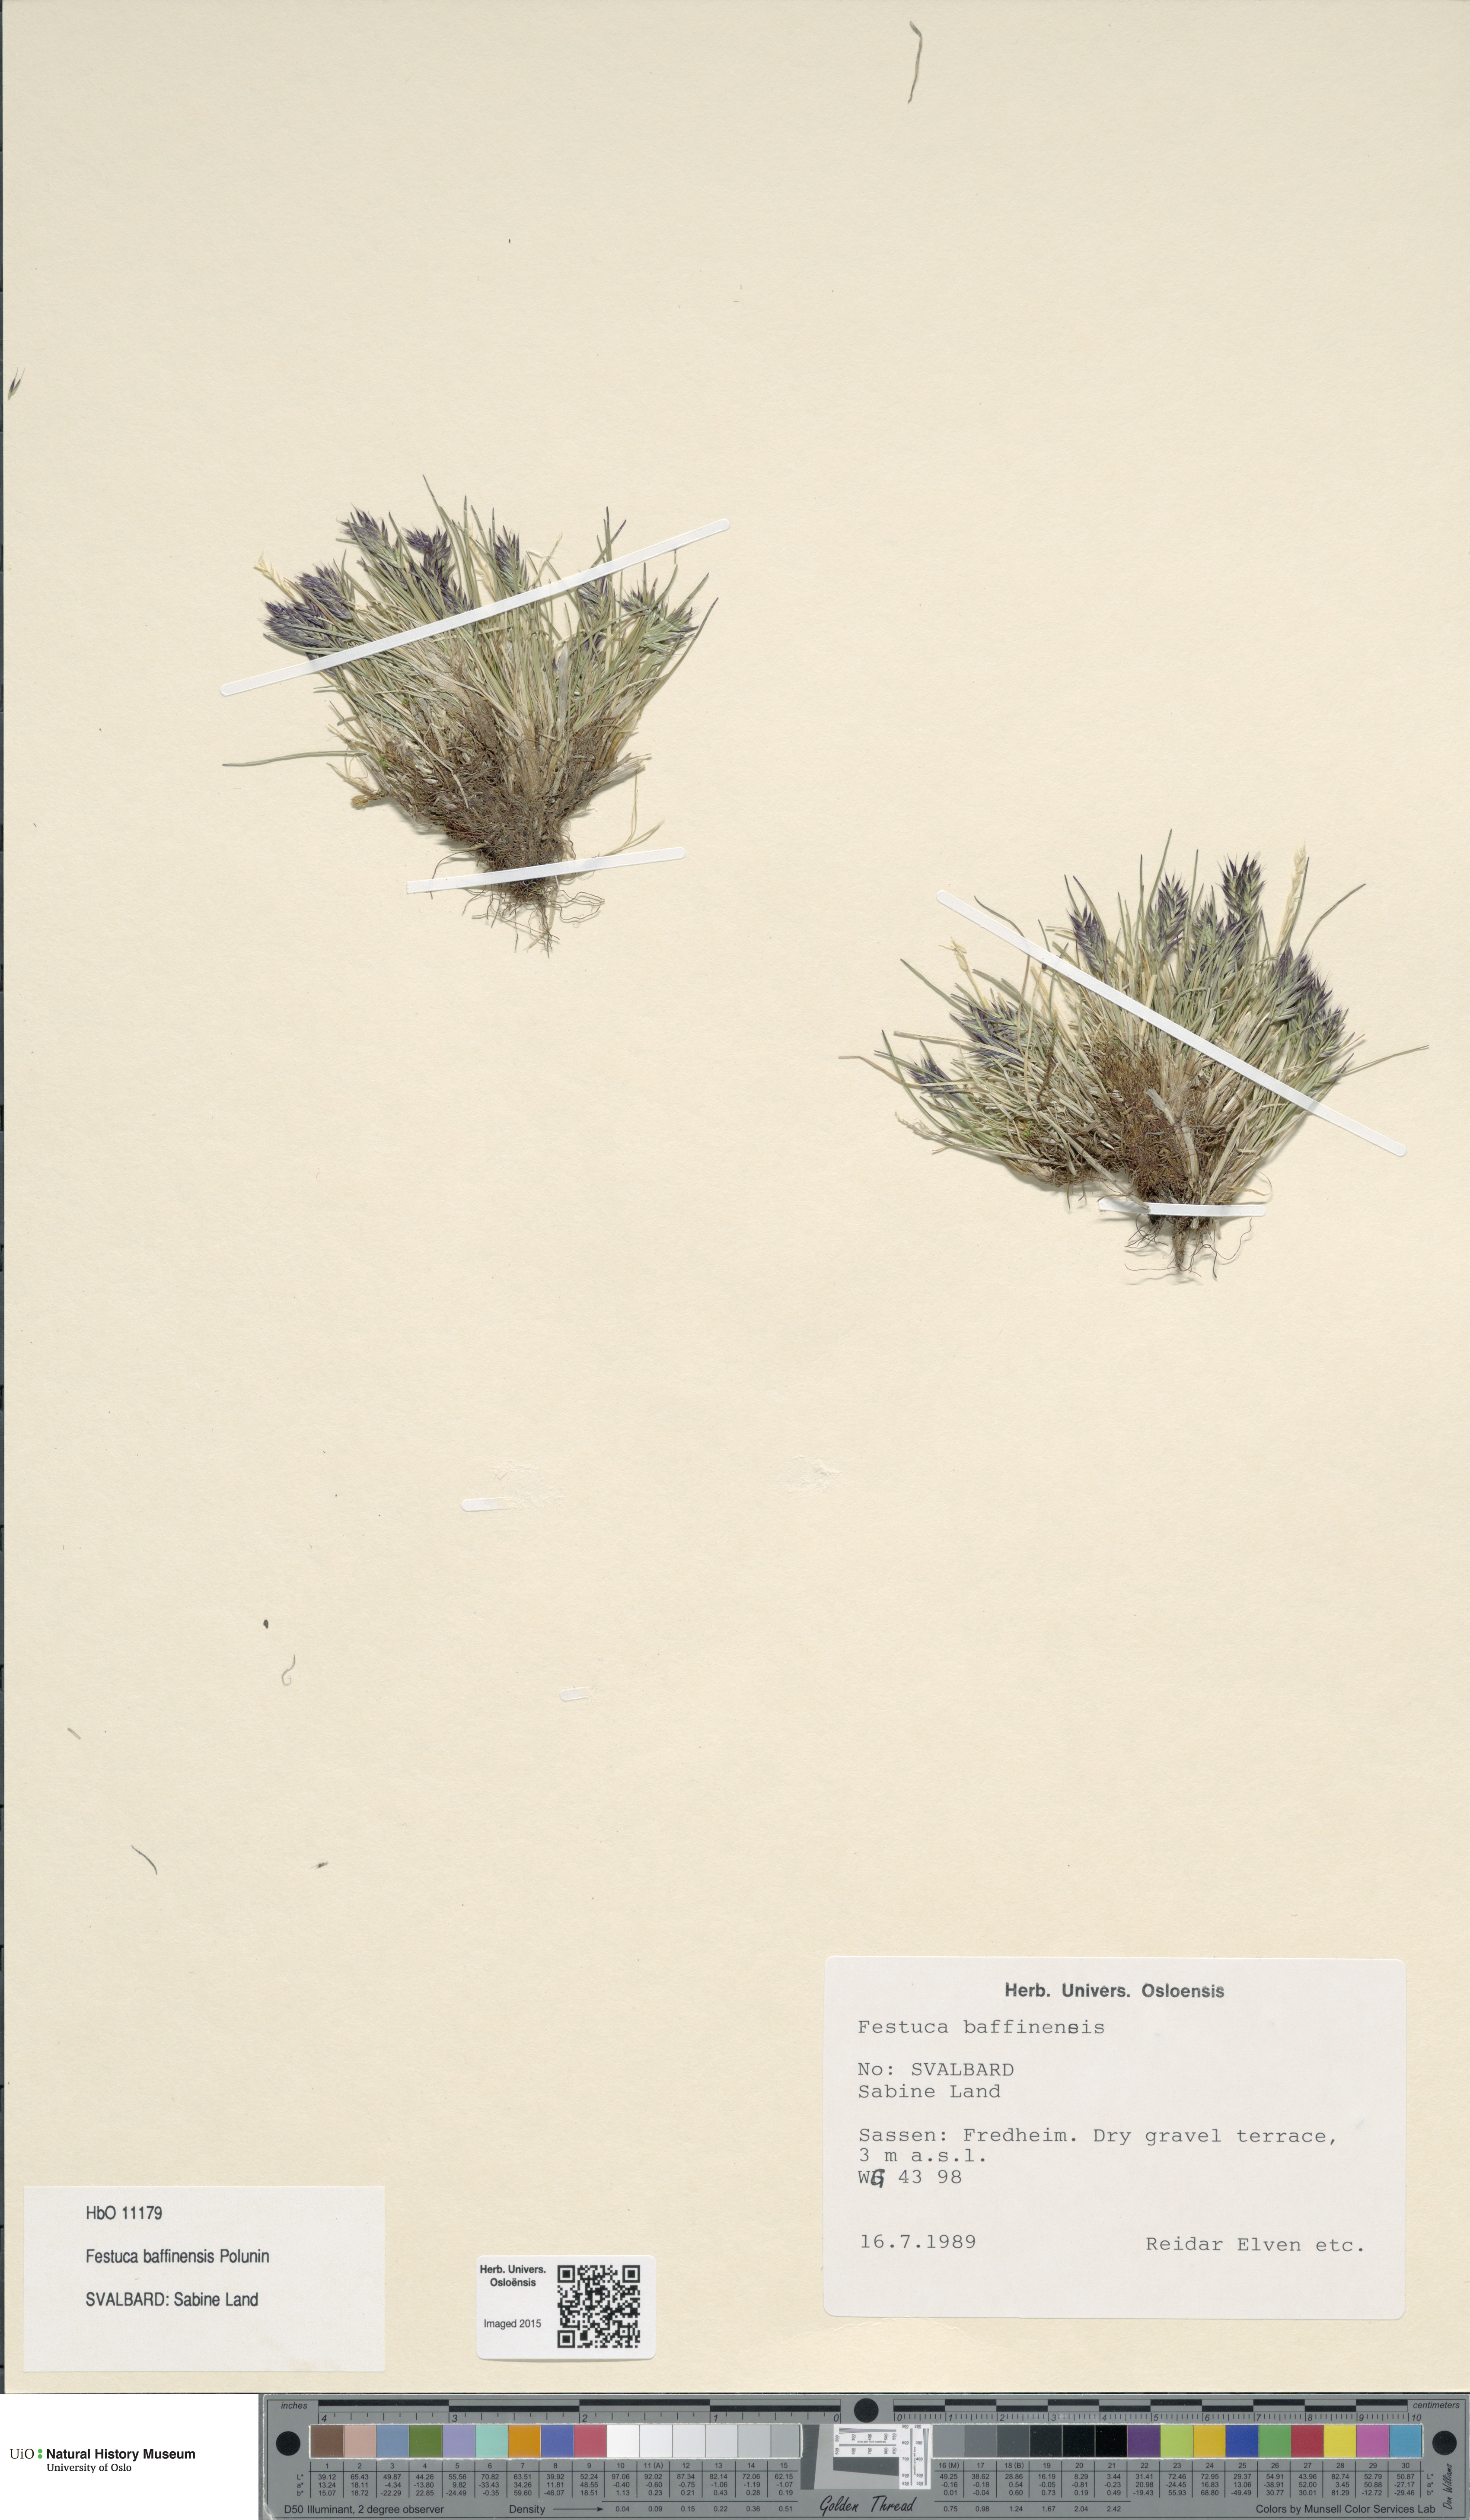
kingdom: Plantae
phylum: Tracheophyta
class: Liliopsida
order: Poales
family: Poaceae
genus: Festuca
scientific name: Festuca baffinensis
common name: Baffin island fescue
